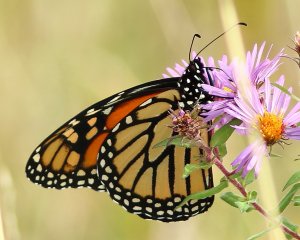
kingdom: Animalia
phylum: Arthropoda
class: Insecta
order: Lepidoptera
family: Nymphalidae
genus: Danaus
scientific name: Danaus plexippus
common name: Monarch
